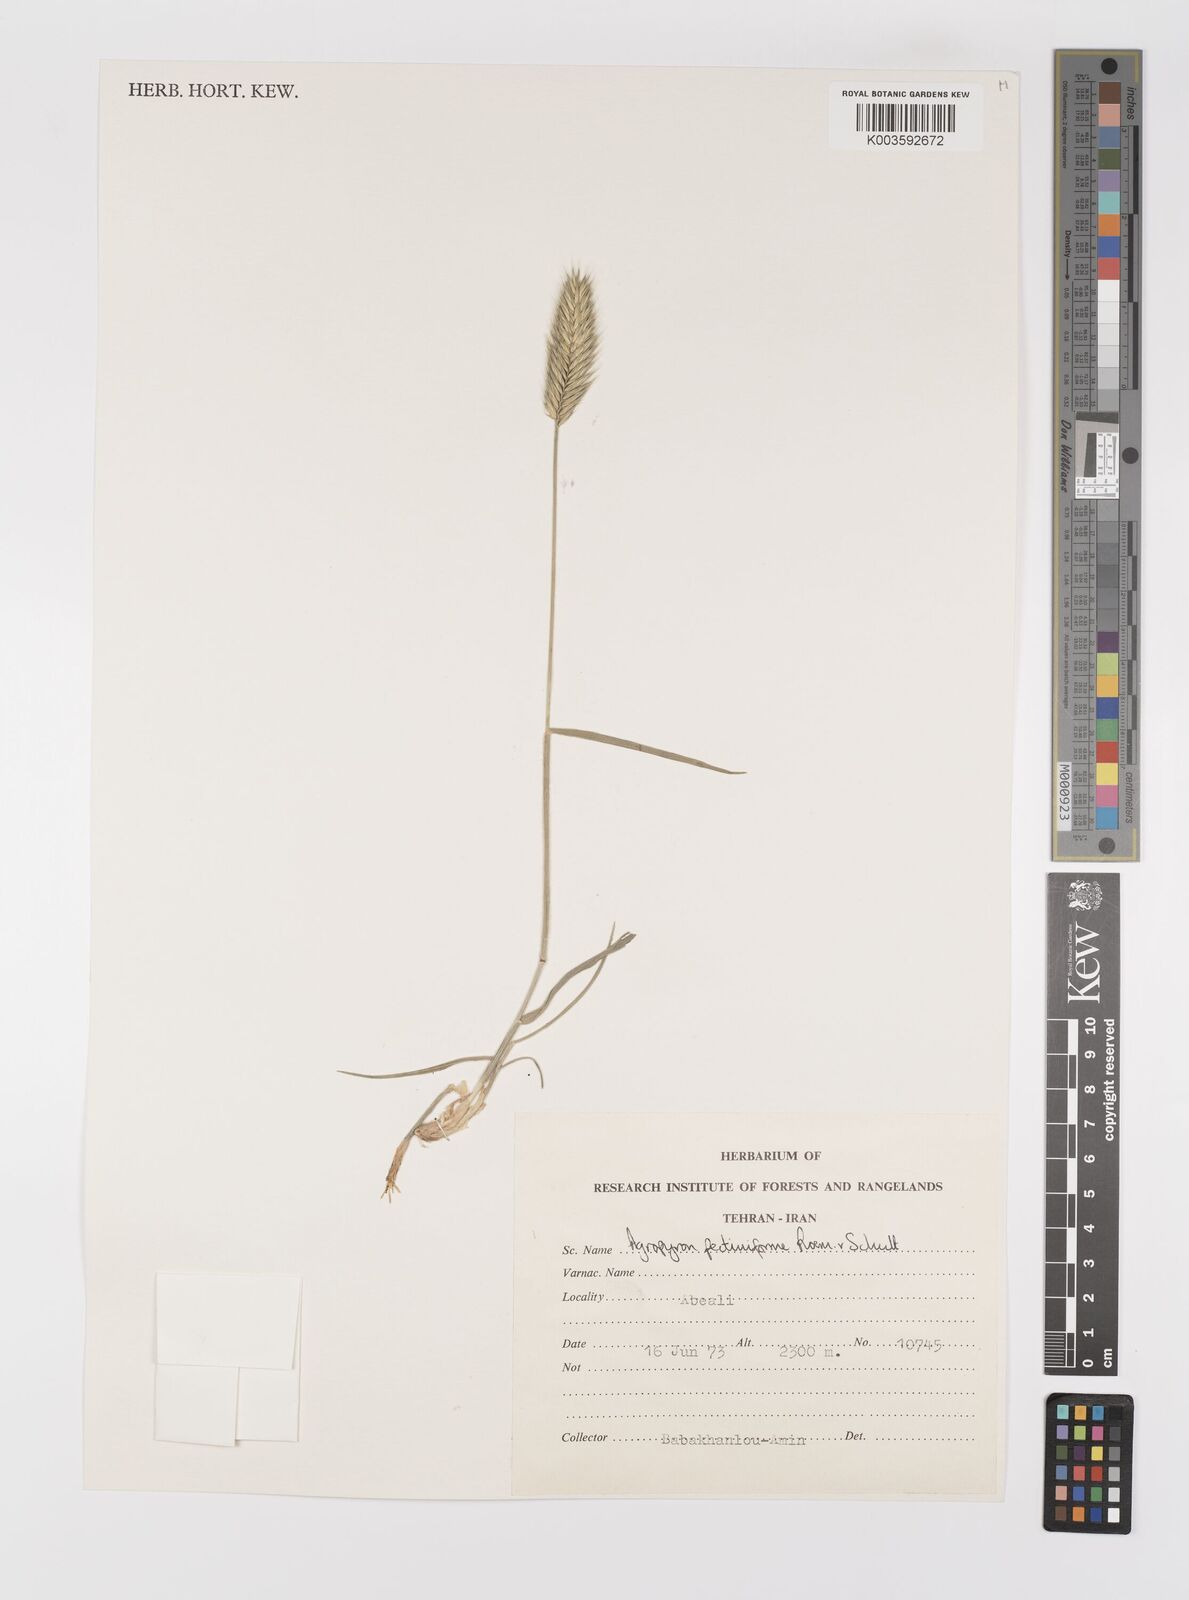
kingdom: Plantae
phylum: Tracheophyta
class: Liliopsida
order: Poales
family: Poaceae
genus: Agropyron
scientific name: Agropyron
